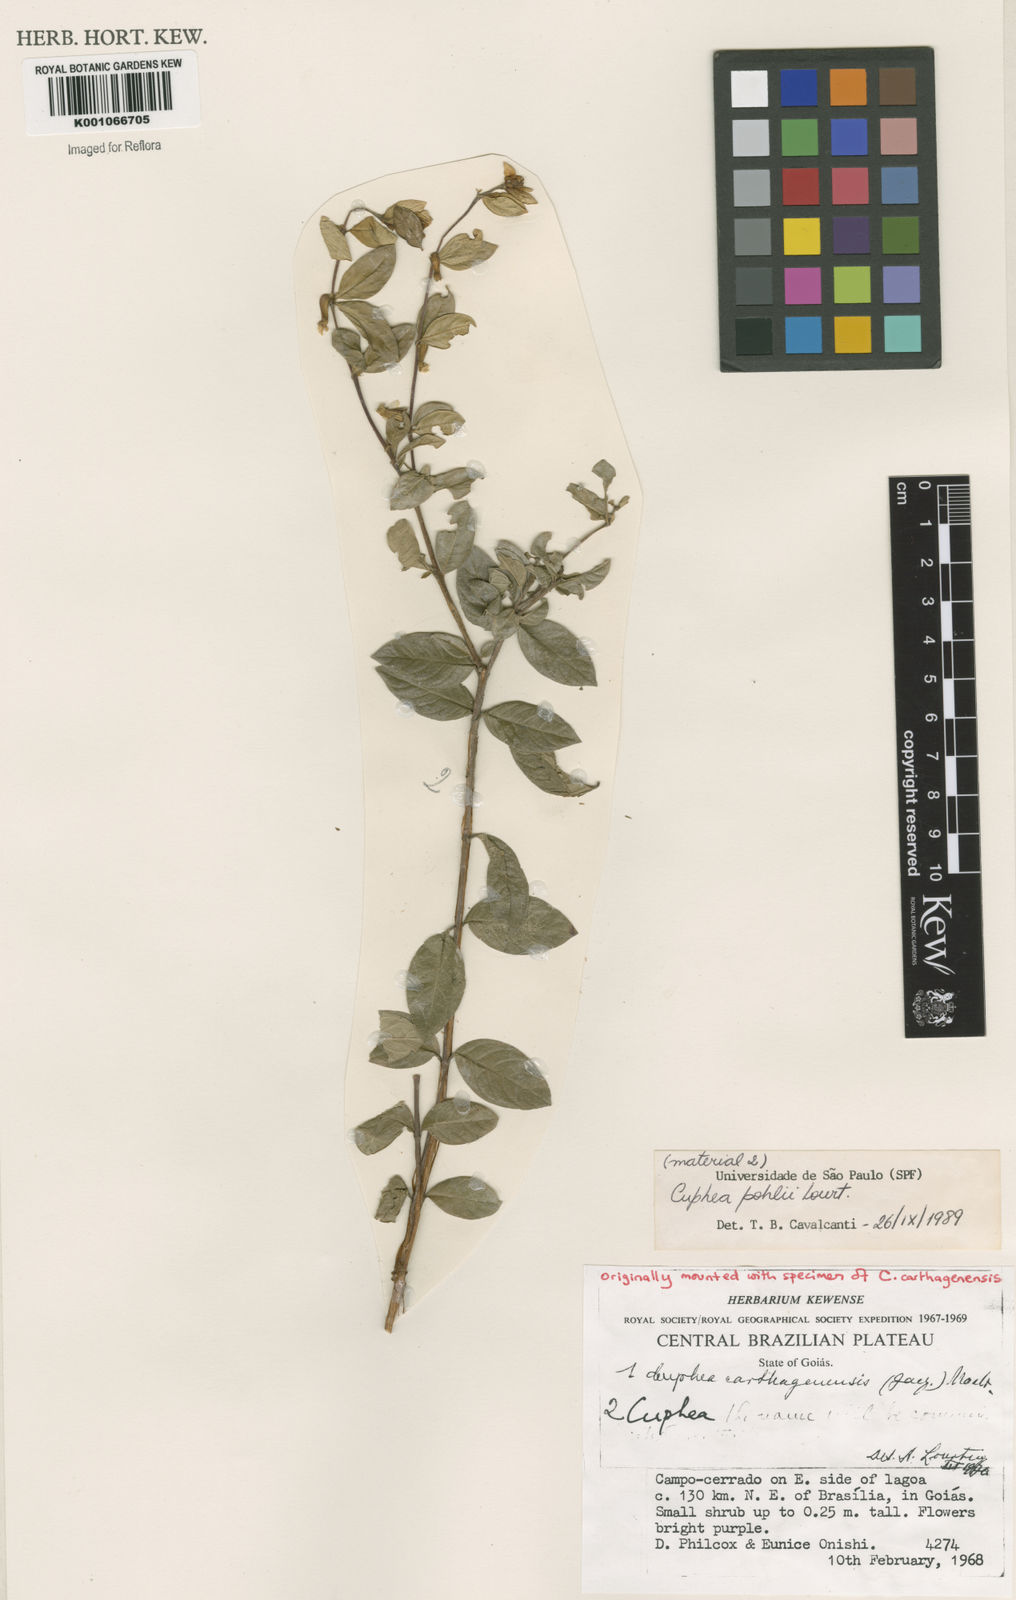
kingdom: Plantae
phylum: Tracheophyta
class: Magnoliopsida
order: Myrtales
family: Lythraceae
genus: Cuphea
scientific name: Cuphea pohlii
